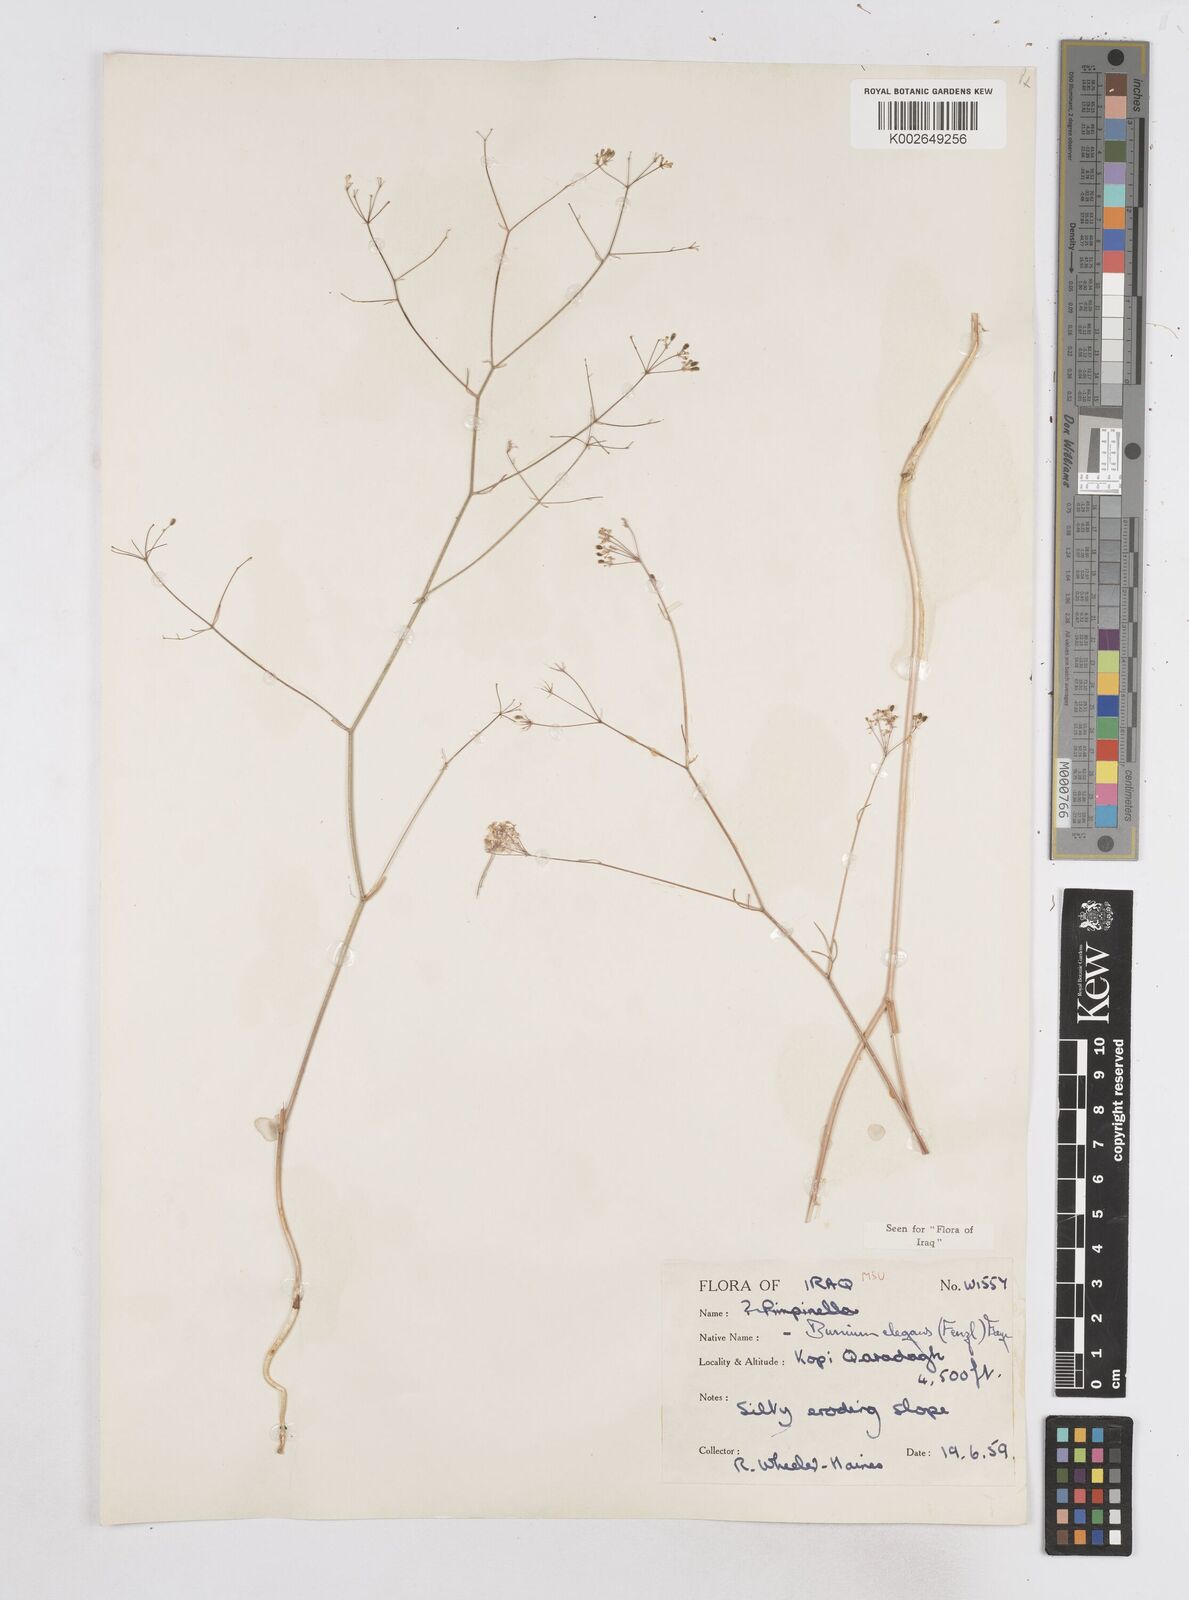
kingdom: Plantae
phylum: Tracheophyta
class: Magnoliopsida
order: Apiales
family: Apiaceae
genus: Bunium
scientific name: Bunium paucifolium
